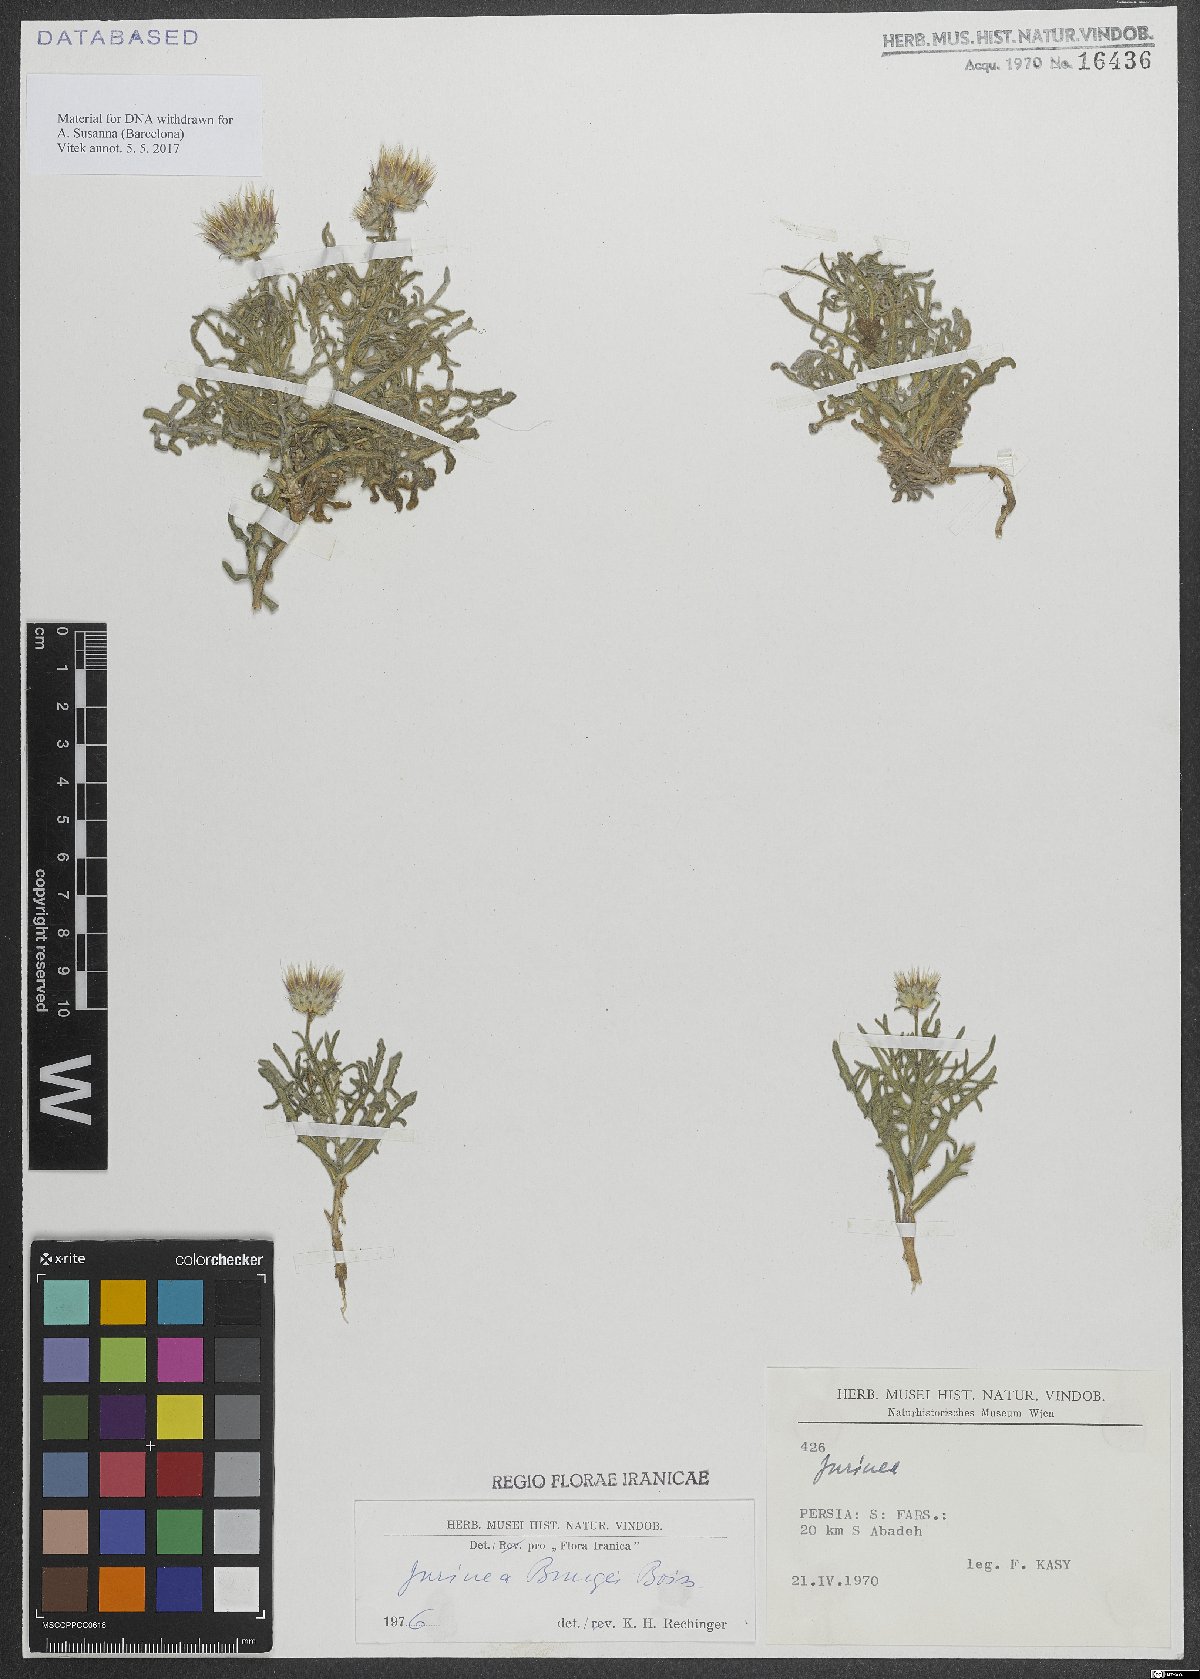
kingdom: Plantae
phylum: Tracheophyta
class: Magnoliopsida
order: Asterales
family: Asteraceae
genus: Jurinea
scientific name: Jurinea bungei
